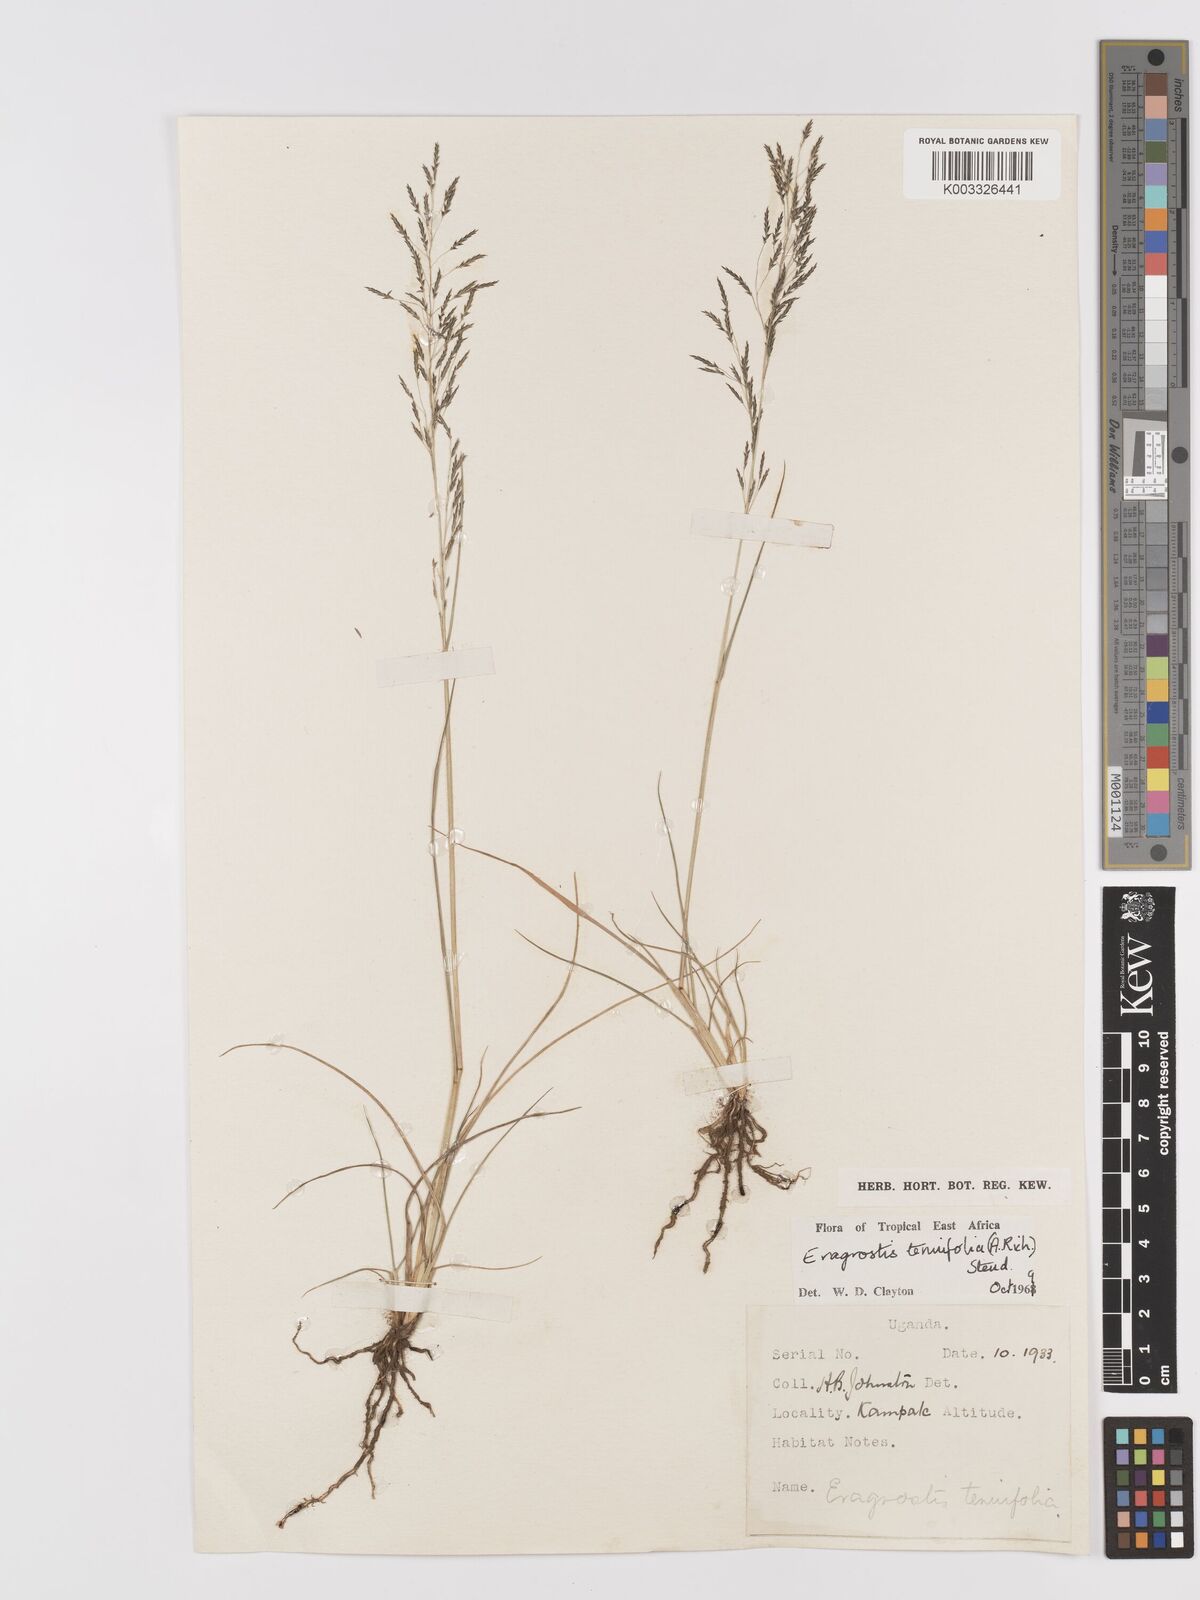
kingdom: Plantae
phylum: Tracheophyta
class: Liliopsida
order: Poales
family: Poaceae
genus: Eragrostis
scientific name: Eragrostis tenuifolia
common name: Elastic grass
